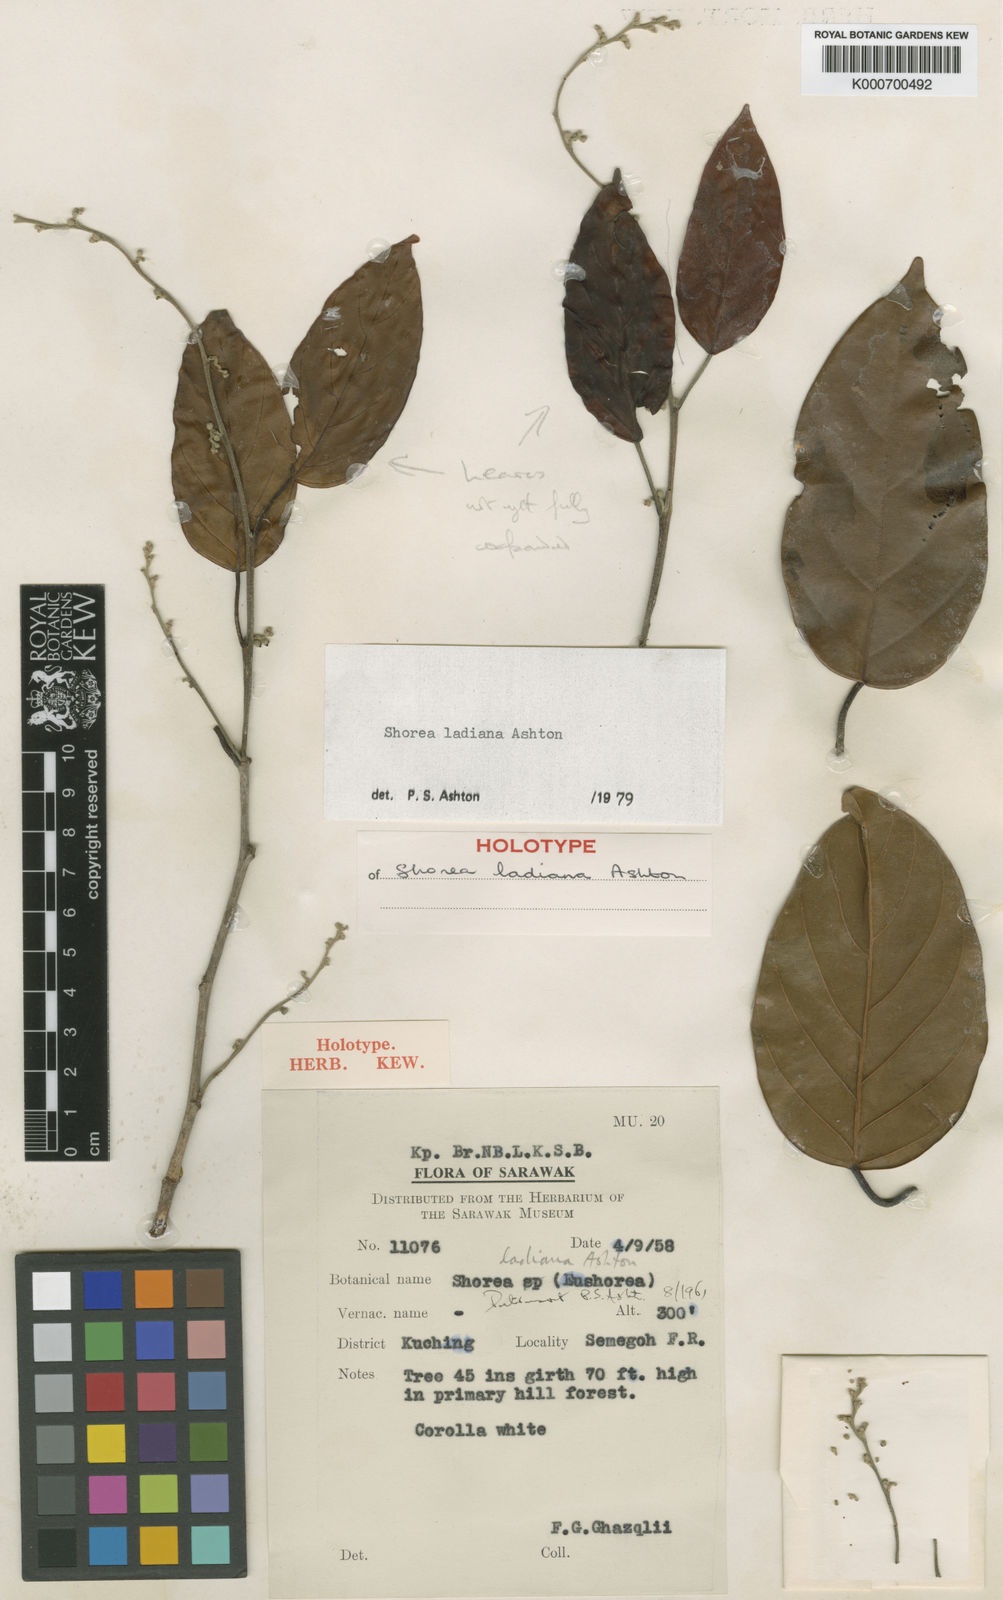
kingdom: Plantae
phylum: Tracheophyta
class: Magnoliopsida
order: Malvales
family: Dipterocarpaceae
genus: Shorea
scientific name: Shorea ladiana
